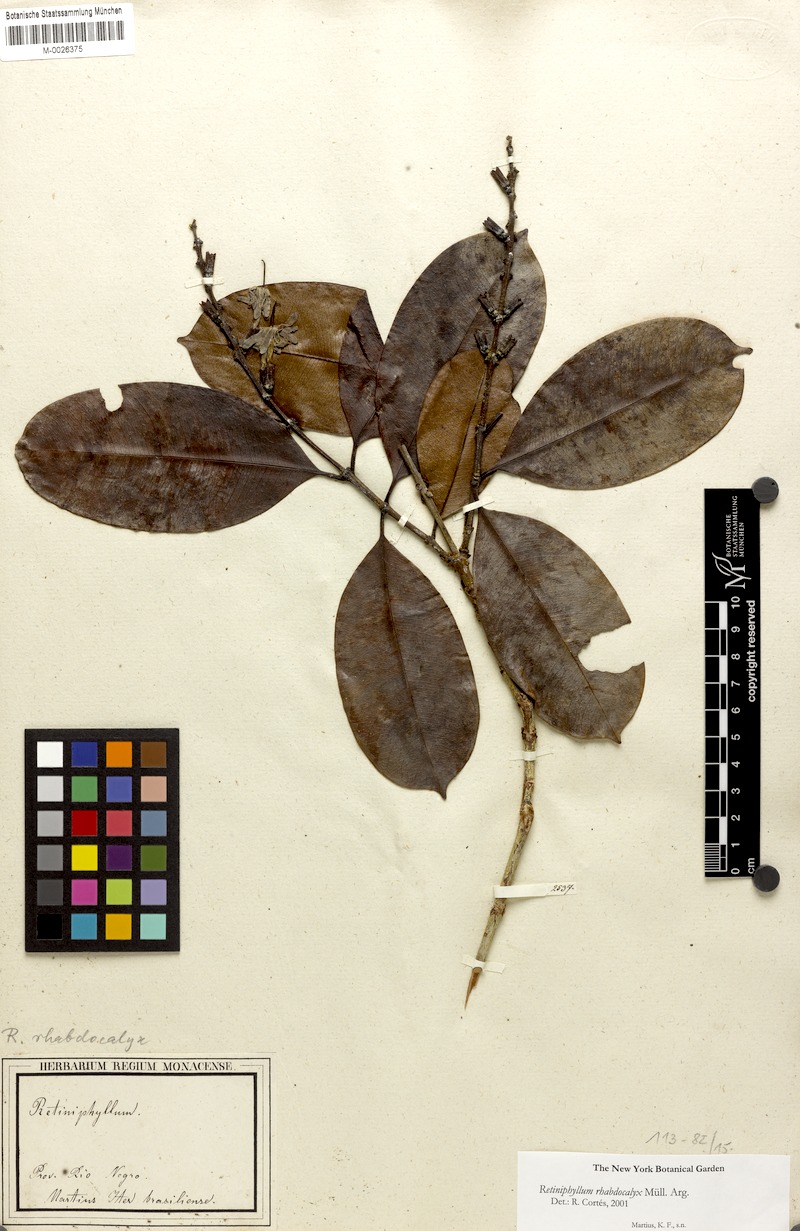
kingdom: Plantae
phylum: Tracheophyta
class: Magnoliopsida
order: Gentianales
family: Rubiaceae
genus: Retiniphyllum
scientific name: Retiniphyllum speciosum
